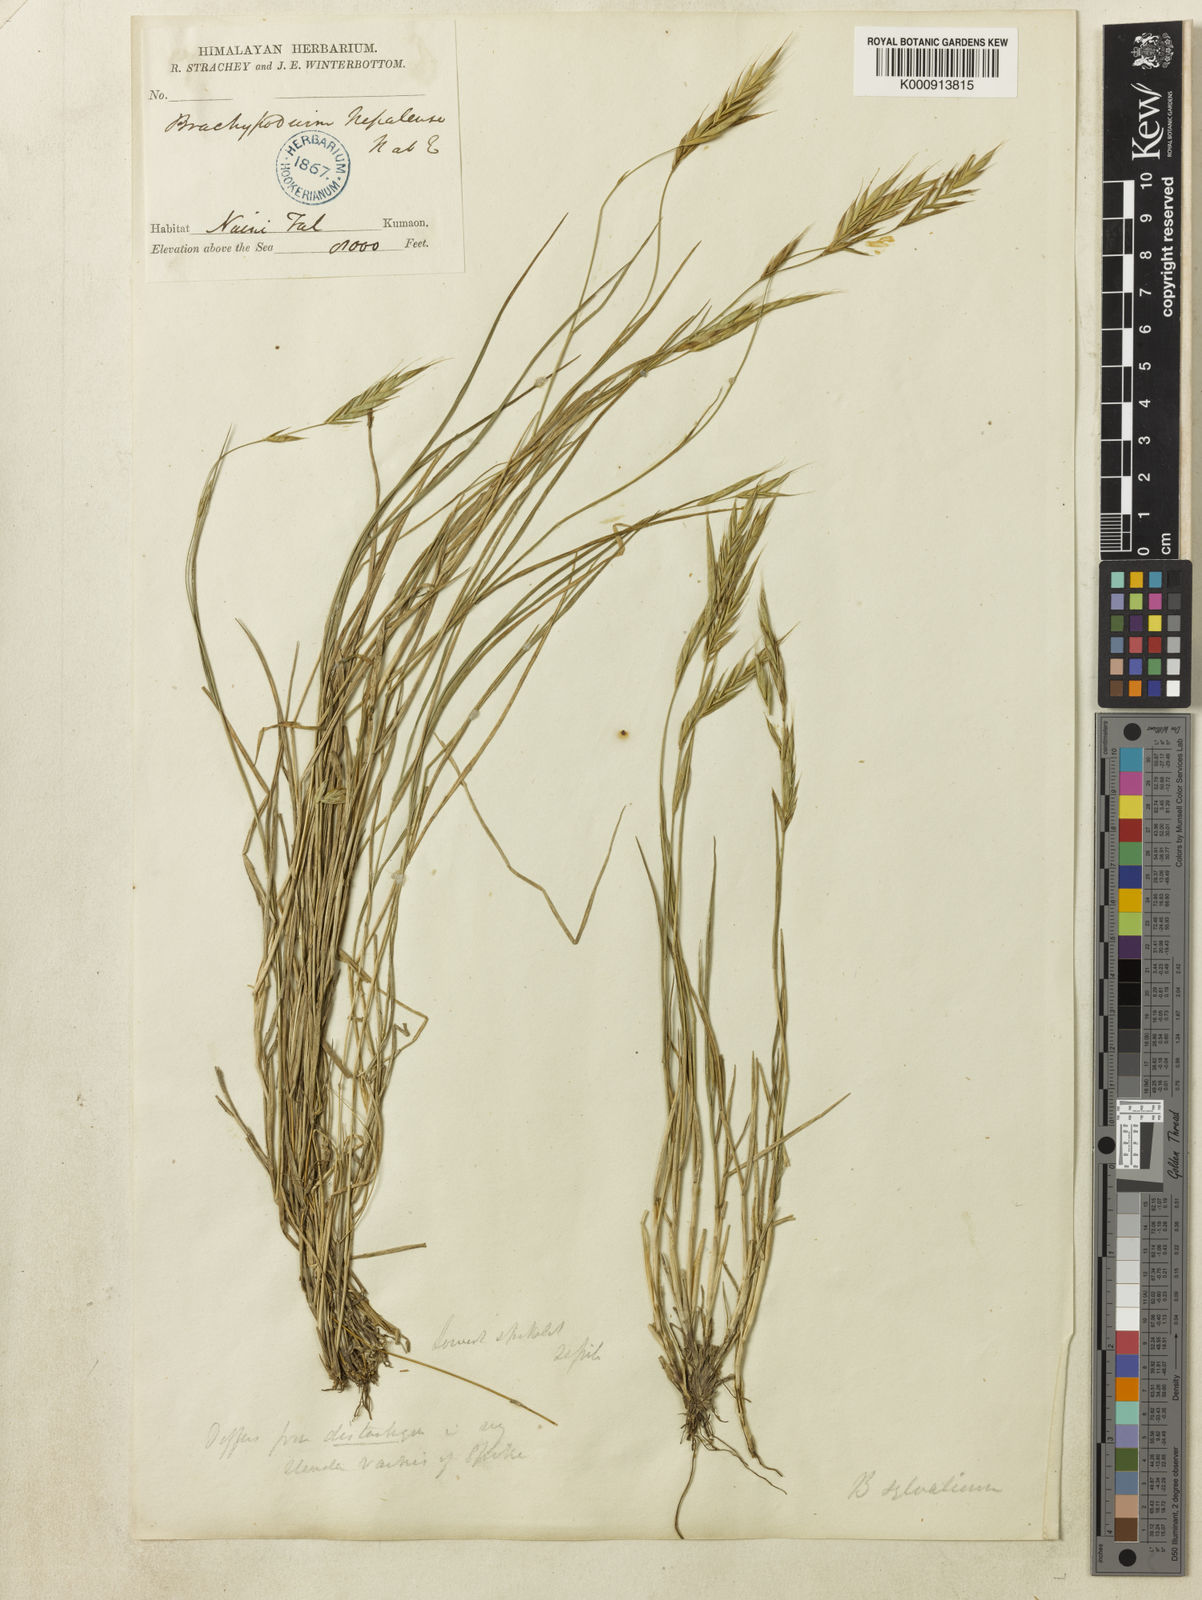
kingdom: Plantae
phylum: Tracheophyta
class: Liliopsida
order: Poales
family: Poaceae
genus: Brachypodium
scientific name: Brachypodium sylvaticum
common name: False-brome
